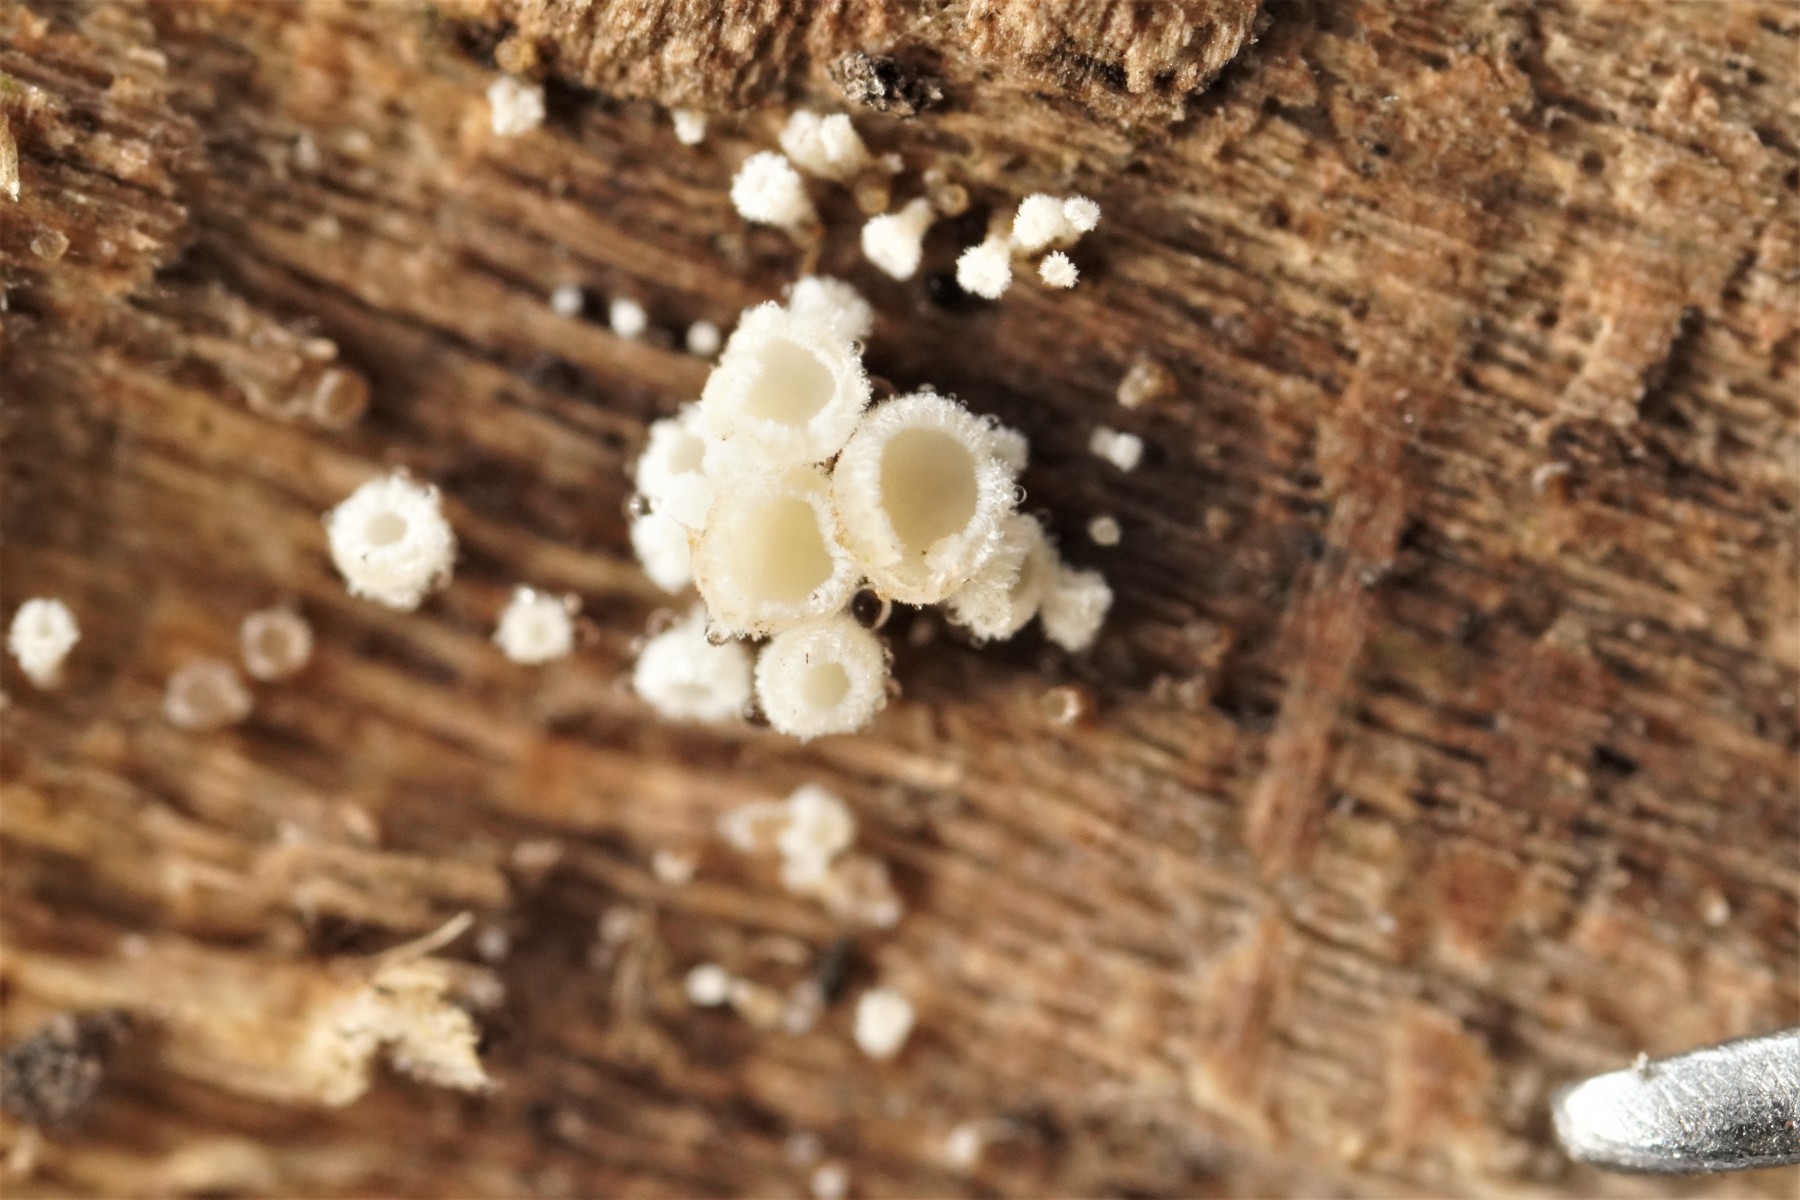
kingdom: Fungi
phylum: Ascomycota
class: Leotiomycetes
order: Helotiales
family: Lachnaceae
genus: Lachnum
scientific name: Lachnum impudicum
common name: vinter-frynseskive
